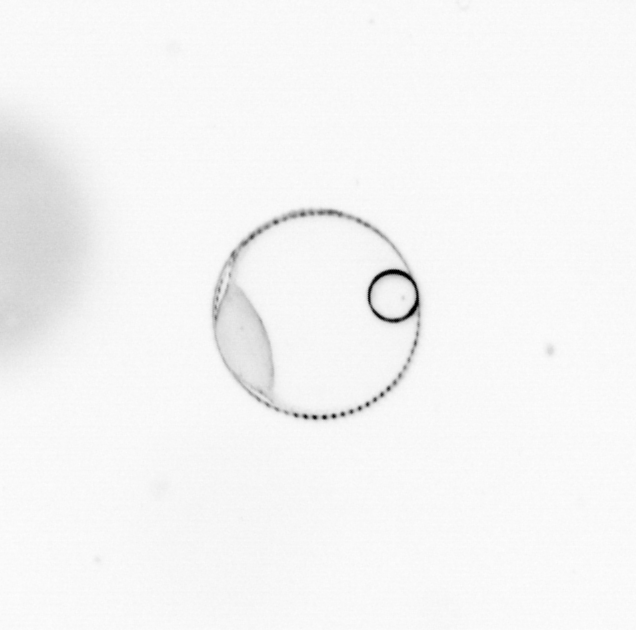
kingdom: Chromista
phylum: Myzozoa
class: Dinophyceae
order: Noctilucales
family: Noctilucaceae
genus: Noctiluca
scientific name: Noctiluca scintillans
